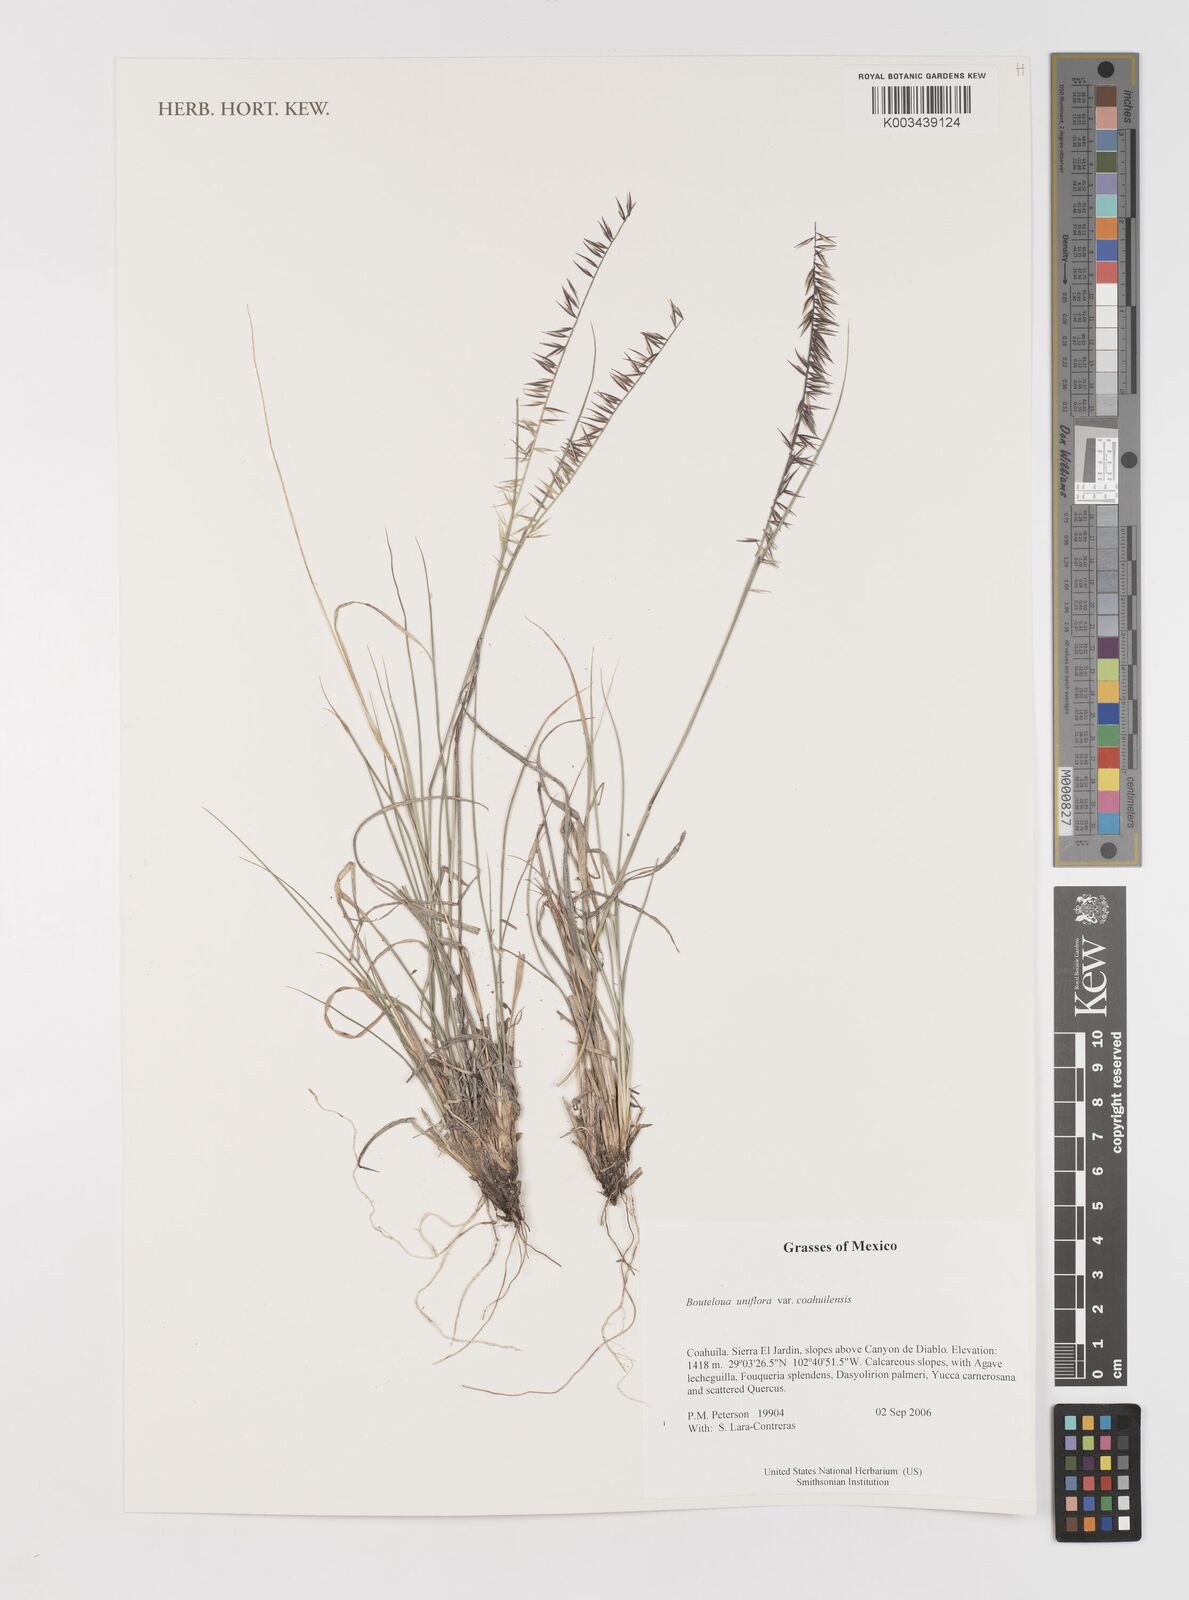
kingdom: Plantae
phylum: Tracheophyta
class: Liliopsida
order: Poales
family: Poaceae
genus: Bouteloua
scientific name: Bouteloua uniflora
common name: Neally's grama
